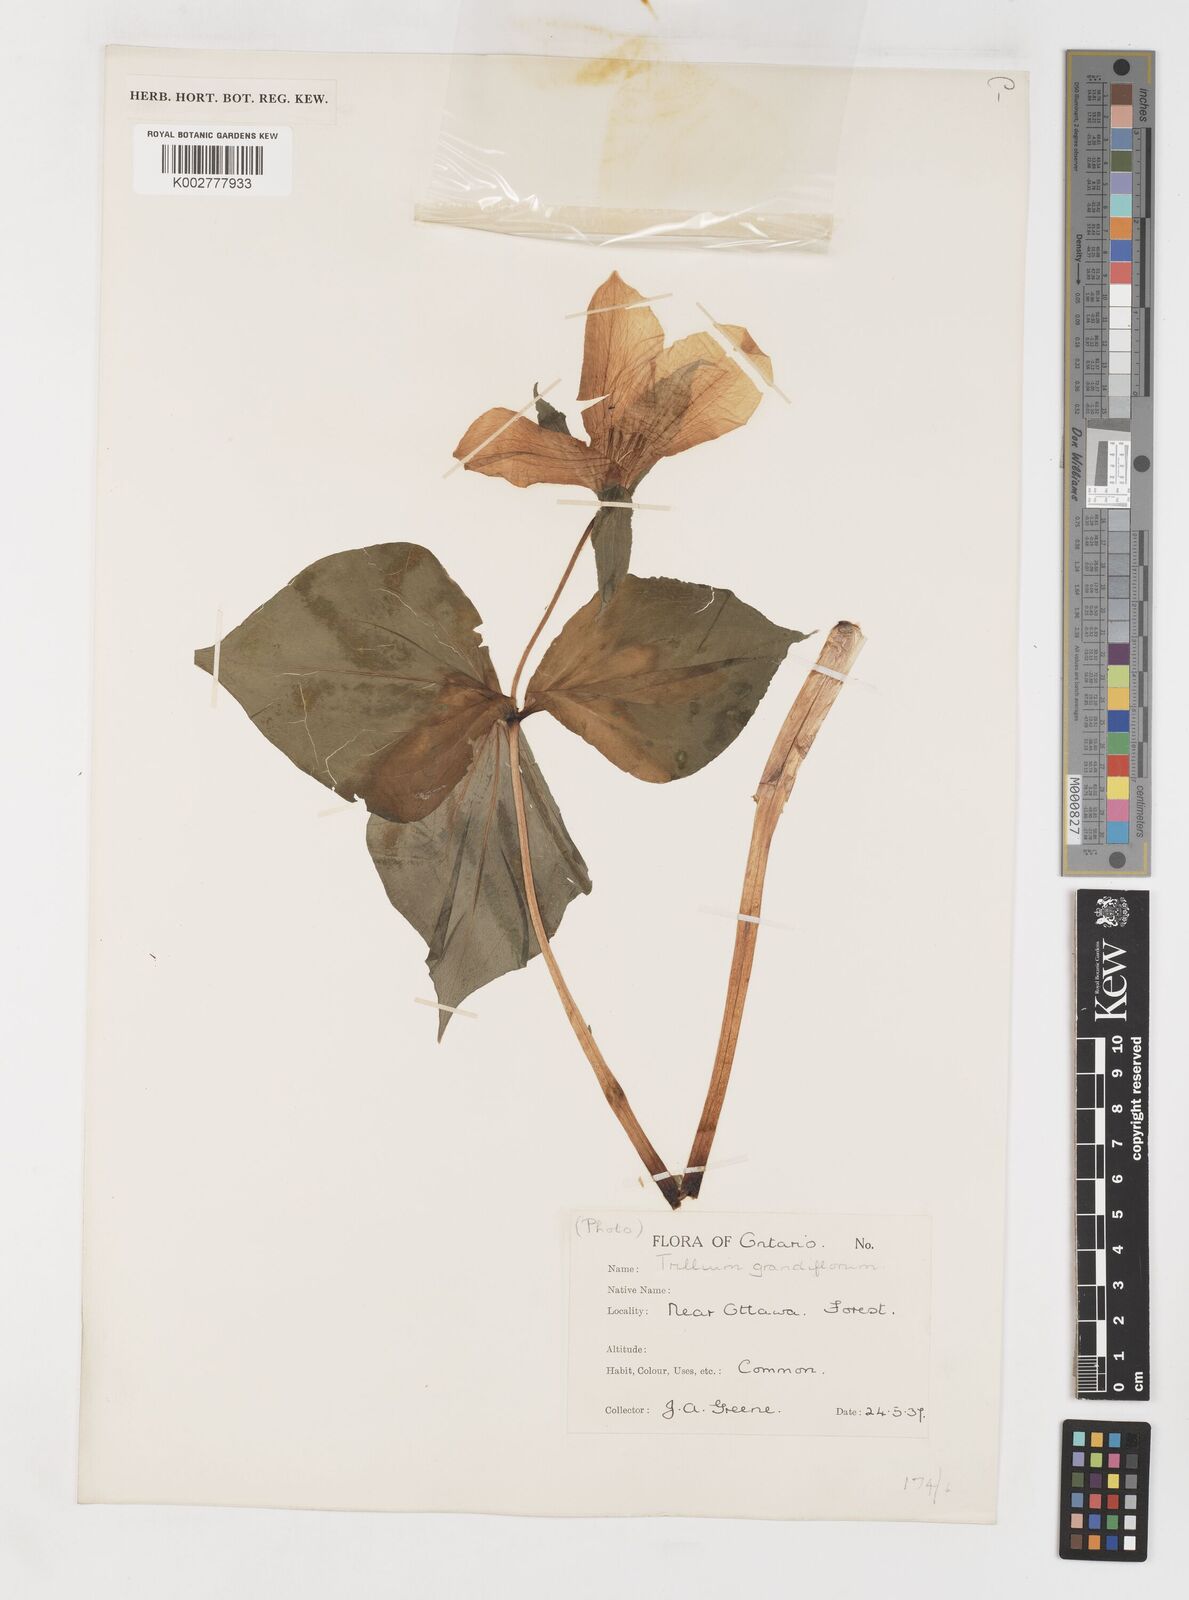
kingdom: Plantae
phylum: Tracheophyta
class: Liliopsida
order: Liliales
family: Melanthiaceae
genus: Trillium
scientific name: Trillium grandiflorum
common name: Great white trillium
